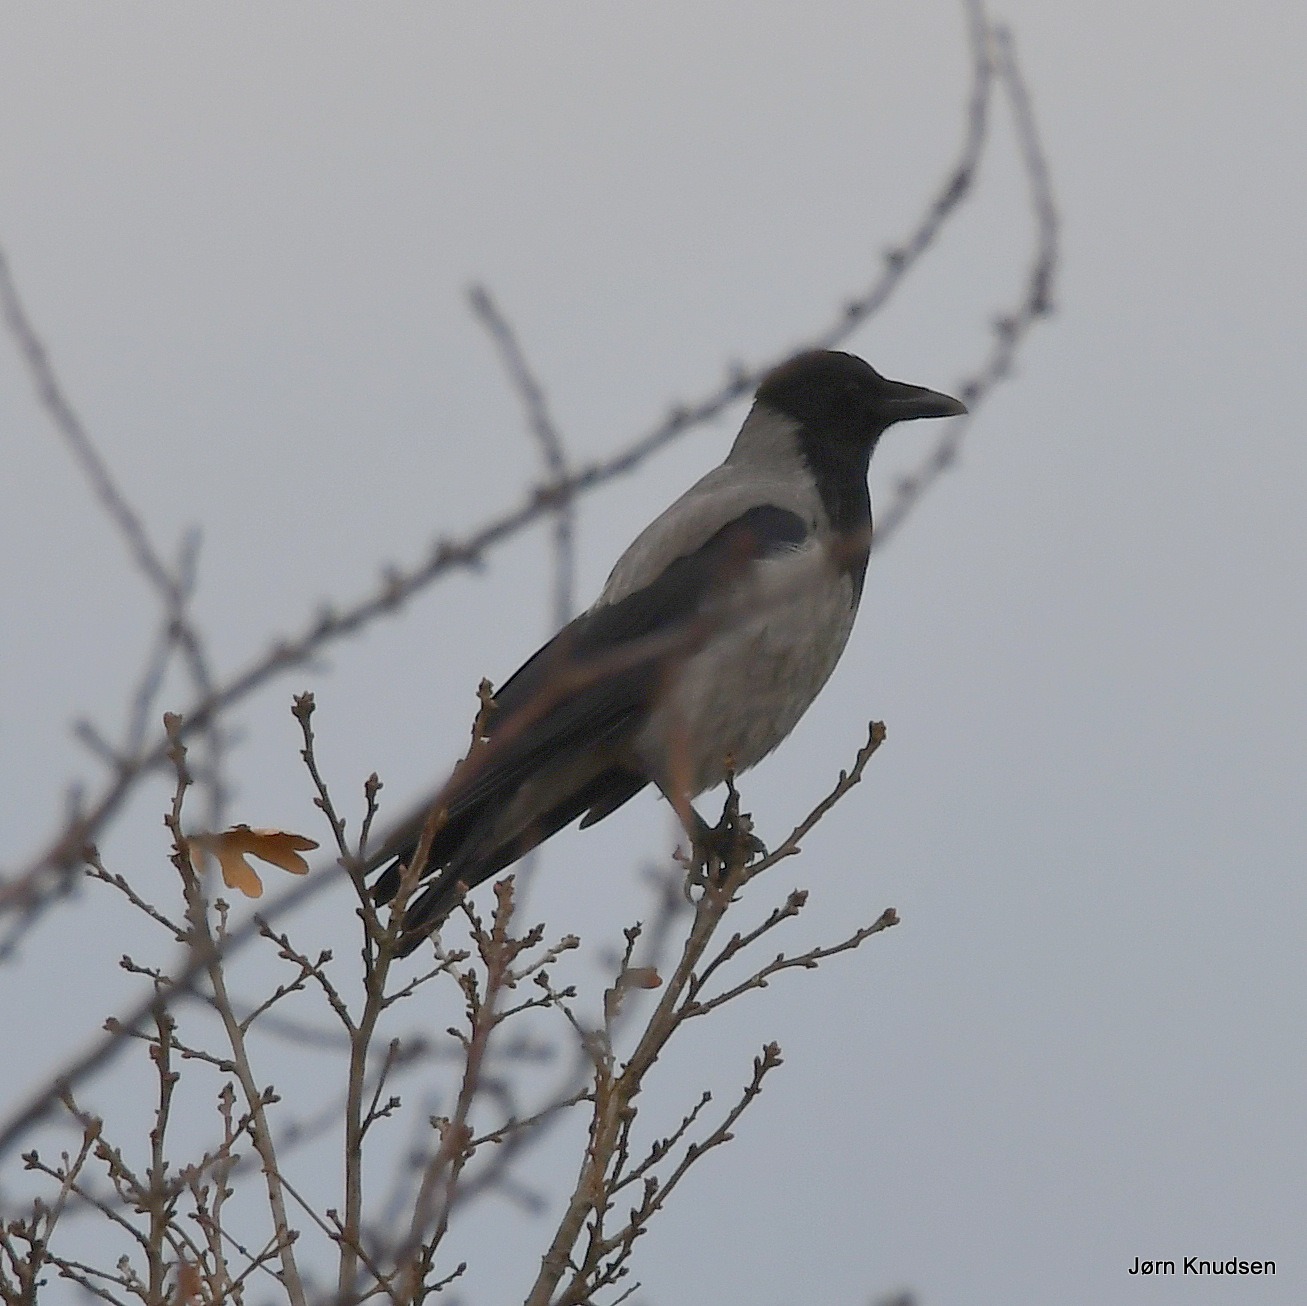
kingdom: Animalia
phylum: Chordata
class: Aves
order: Passeriformes
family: Corvidae
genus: Corvus
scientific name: Corvus cornix
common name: Gråkrage
